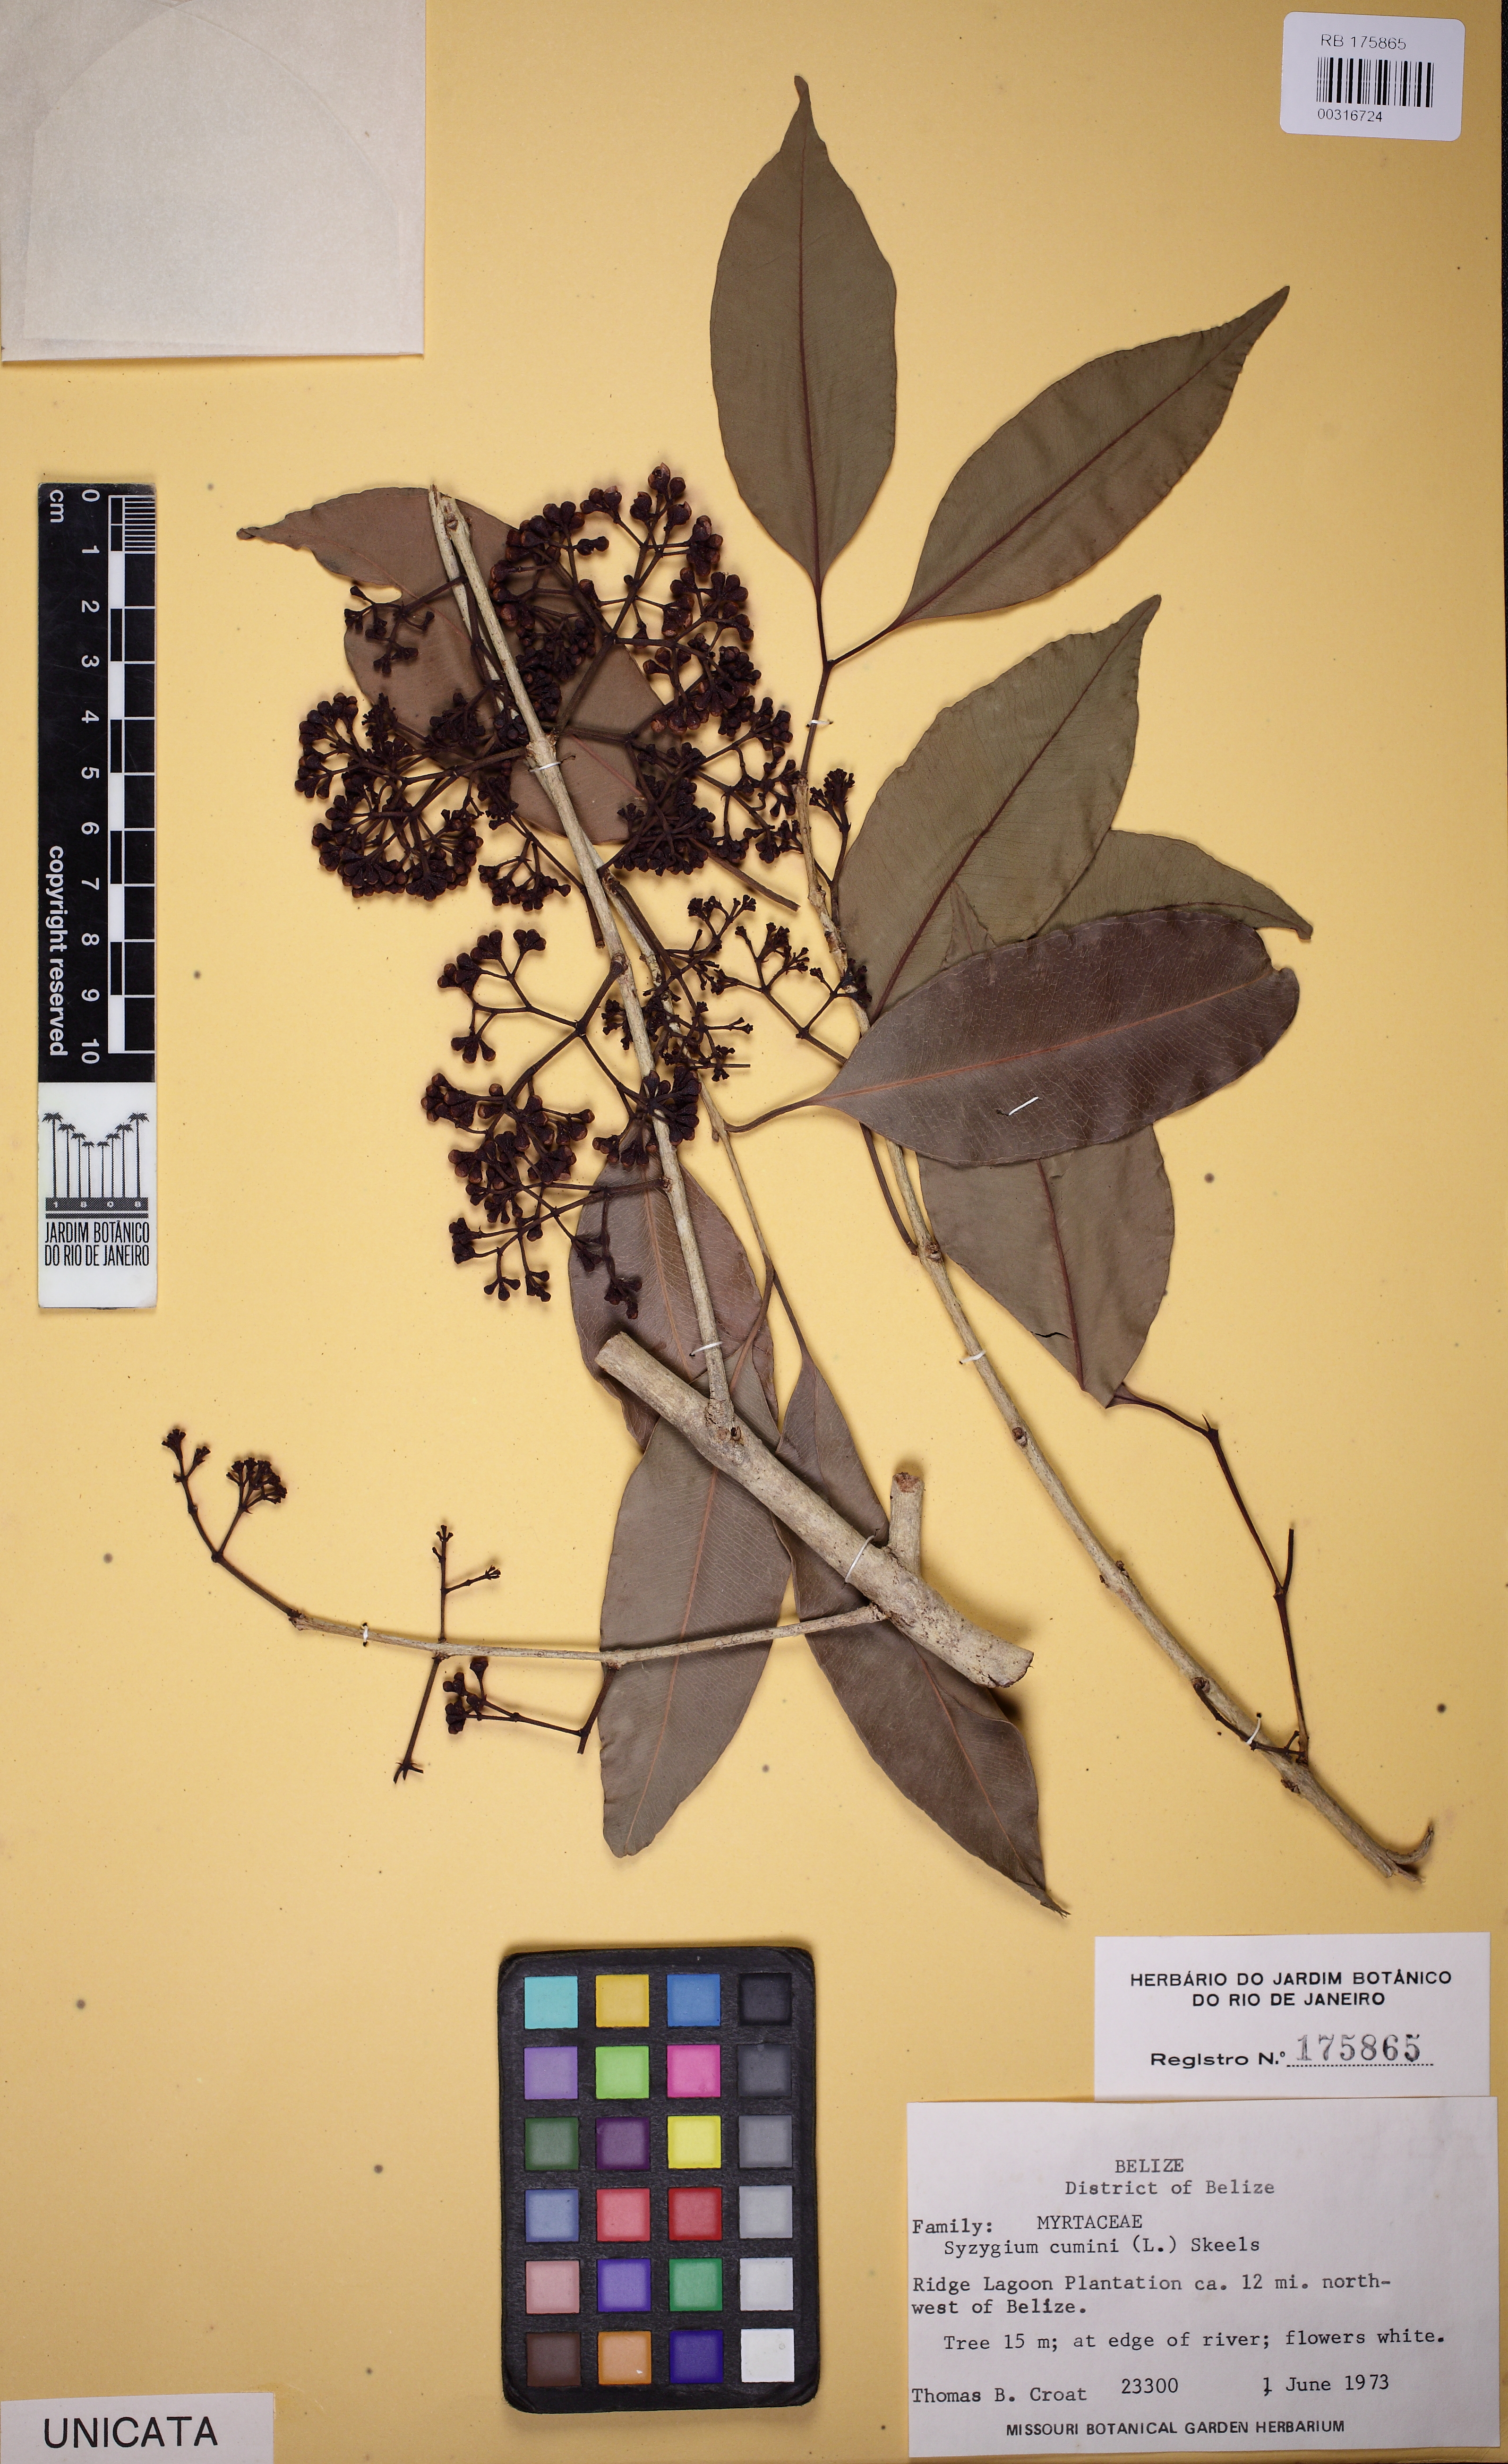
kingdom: Plantae
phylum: Tracheophyta
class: Magnoliopsida
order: Myrtales
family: Myrtaceae
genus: Syzygium
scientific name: Syzygium cumini
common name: Java plum
